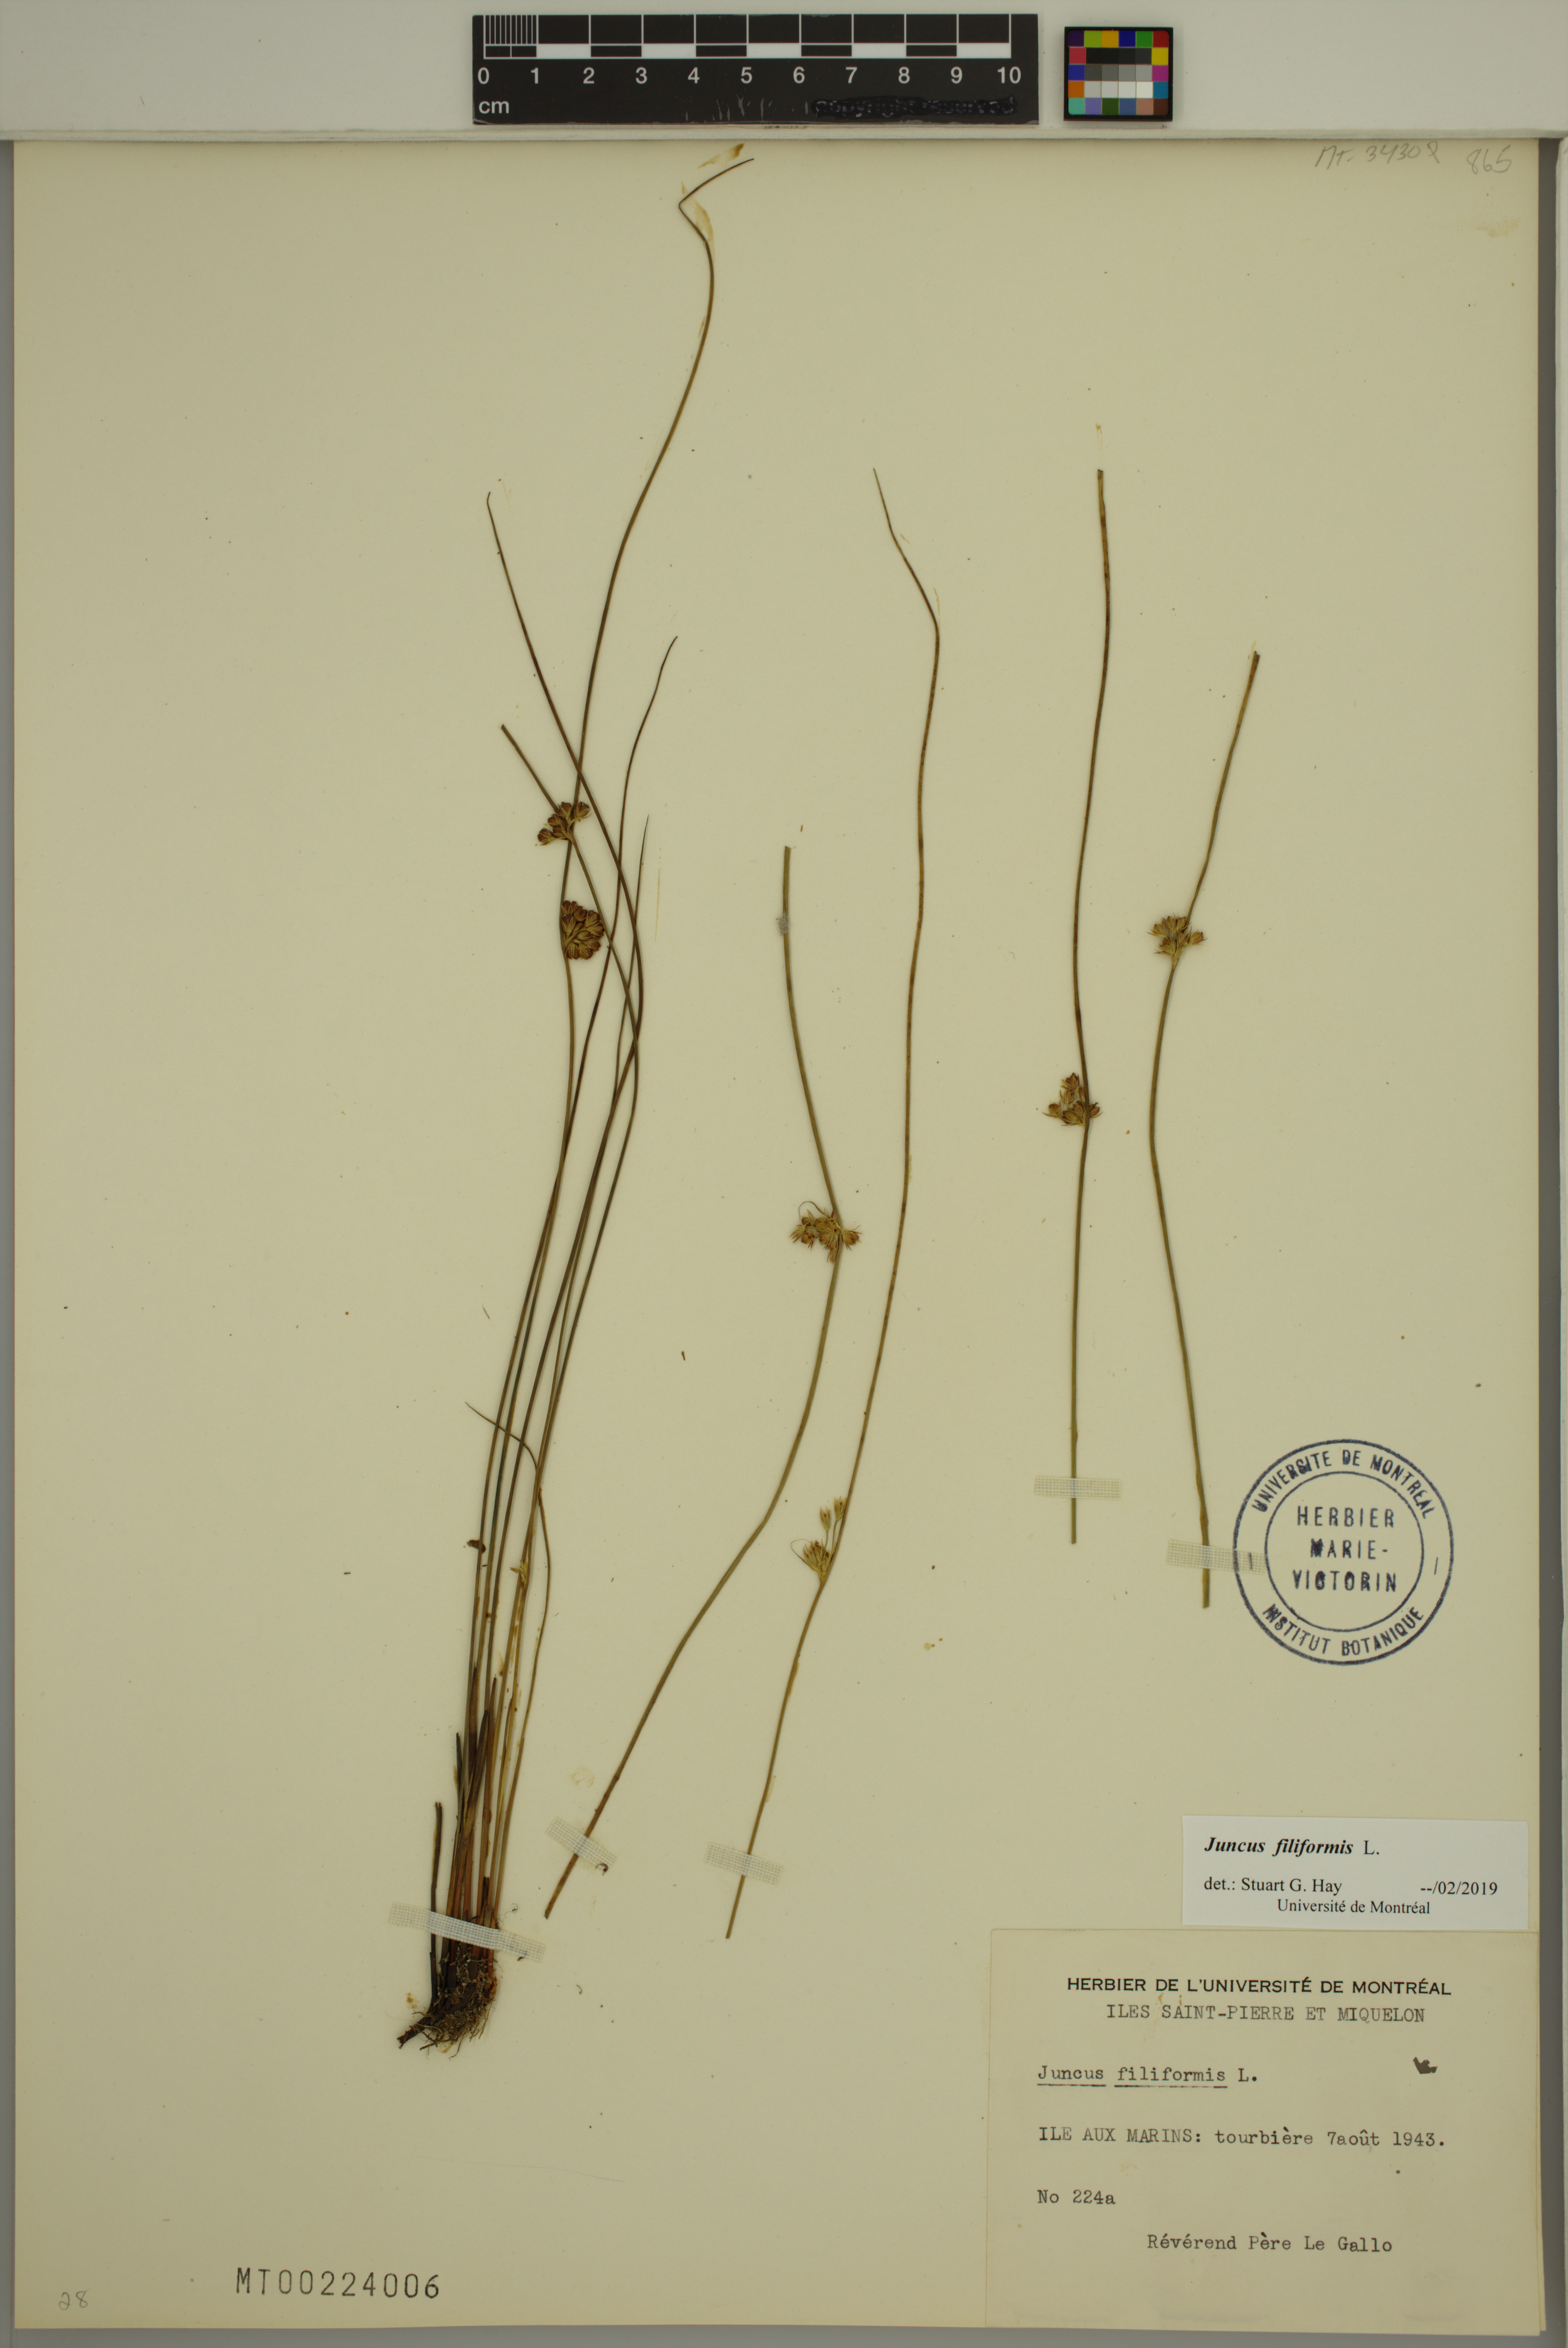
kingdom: Plantae
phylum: Tracheophyta
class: Liliopsida
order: Poales
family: Juncaceae
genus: Juncus
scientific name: Juncus filiformis
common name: Thread rush
